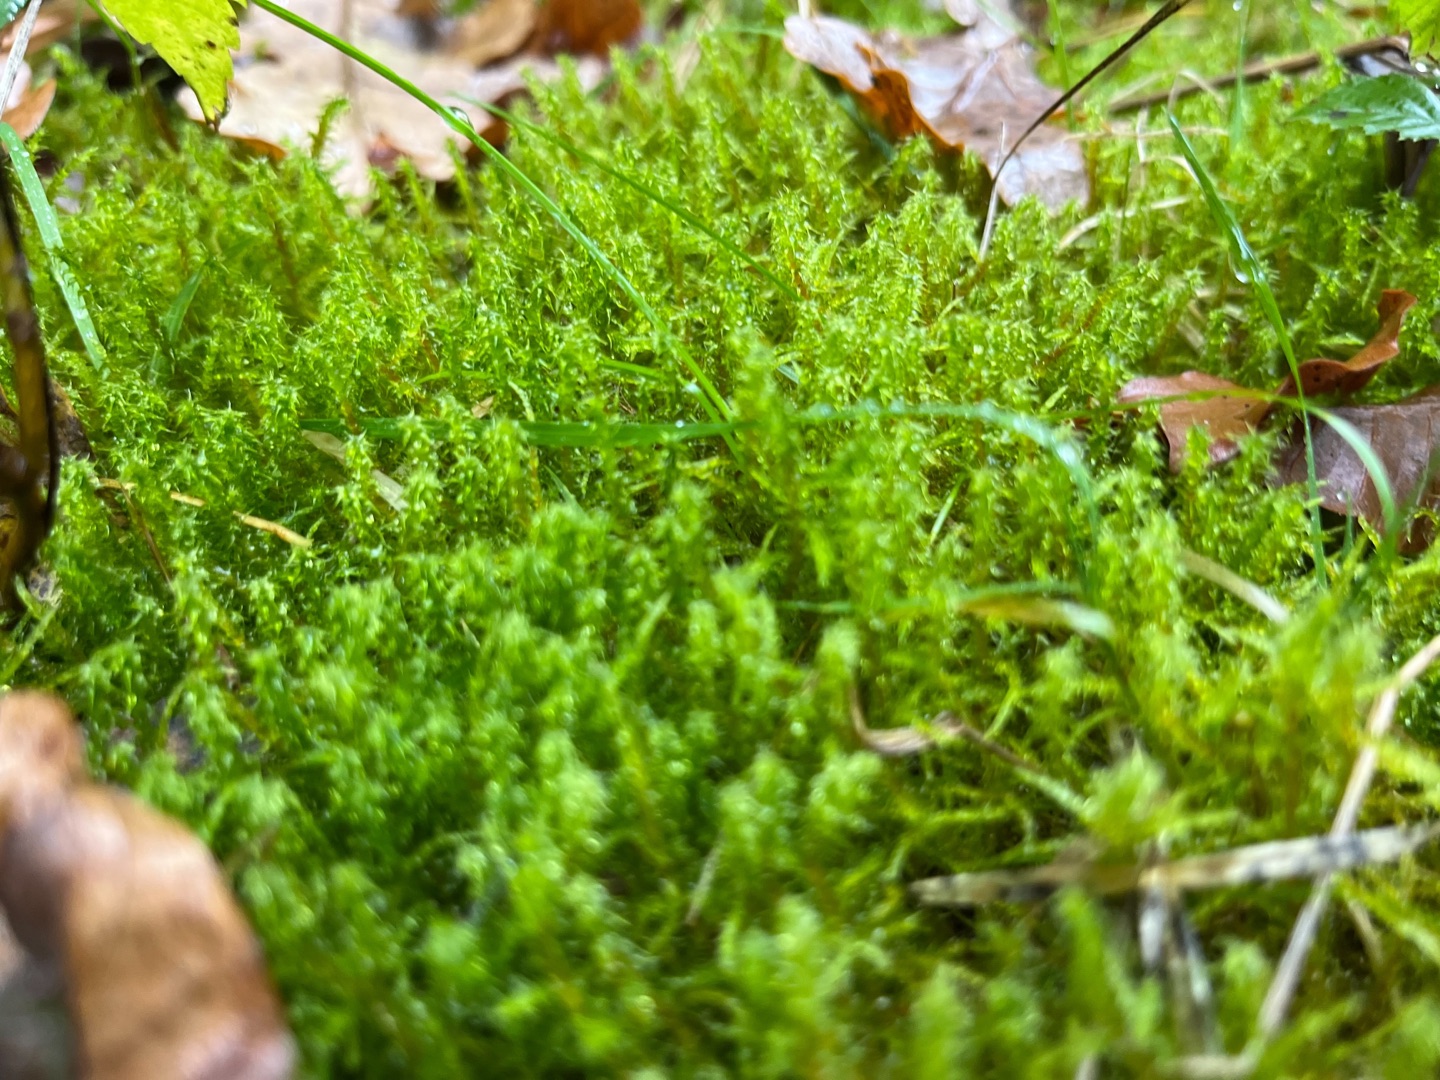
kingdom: Plantae
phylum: Bryophyta
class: Bryopsida
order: Hypnales
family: Hylocomiaceae
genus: Rhytidiadelphus
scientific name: Rhytidiadelphus squarrosus
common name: Plæne-kransemos
